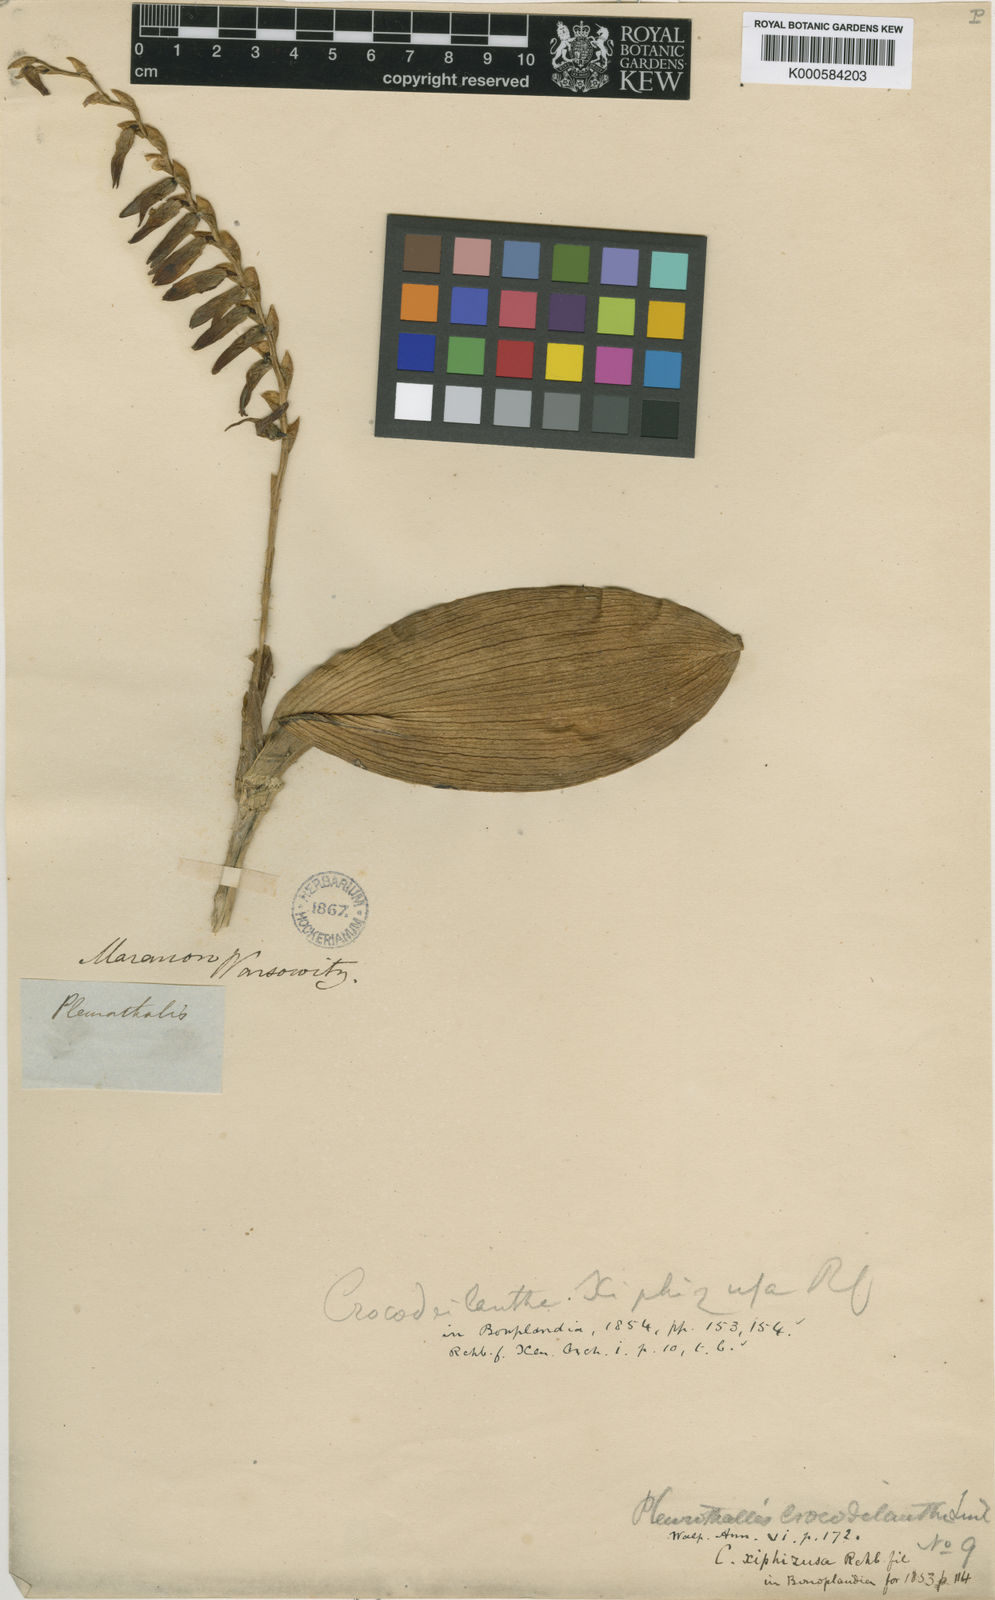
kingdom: Plantae
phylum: Tracheophyta
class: Liliopsida
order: Asparagales
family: Orchidaceae
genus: Pleurothallis
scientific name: Pleurothallis
